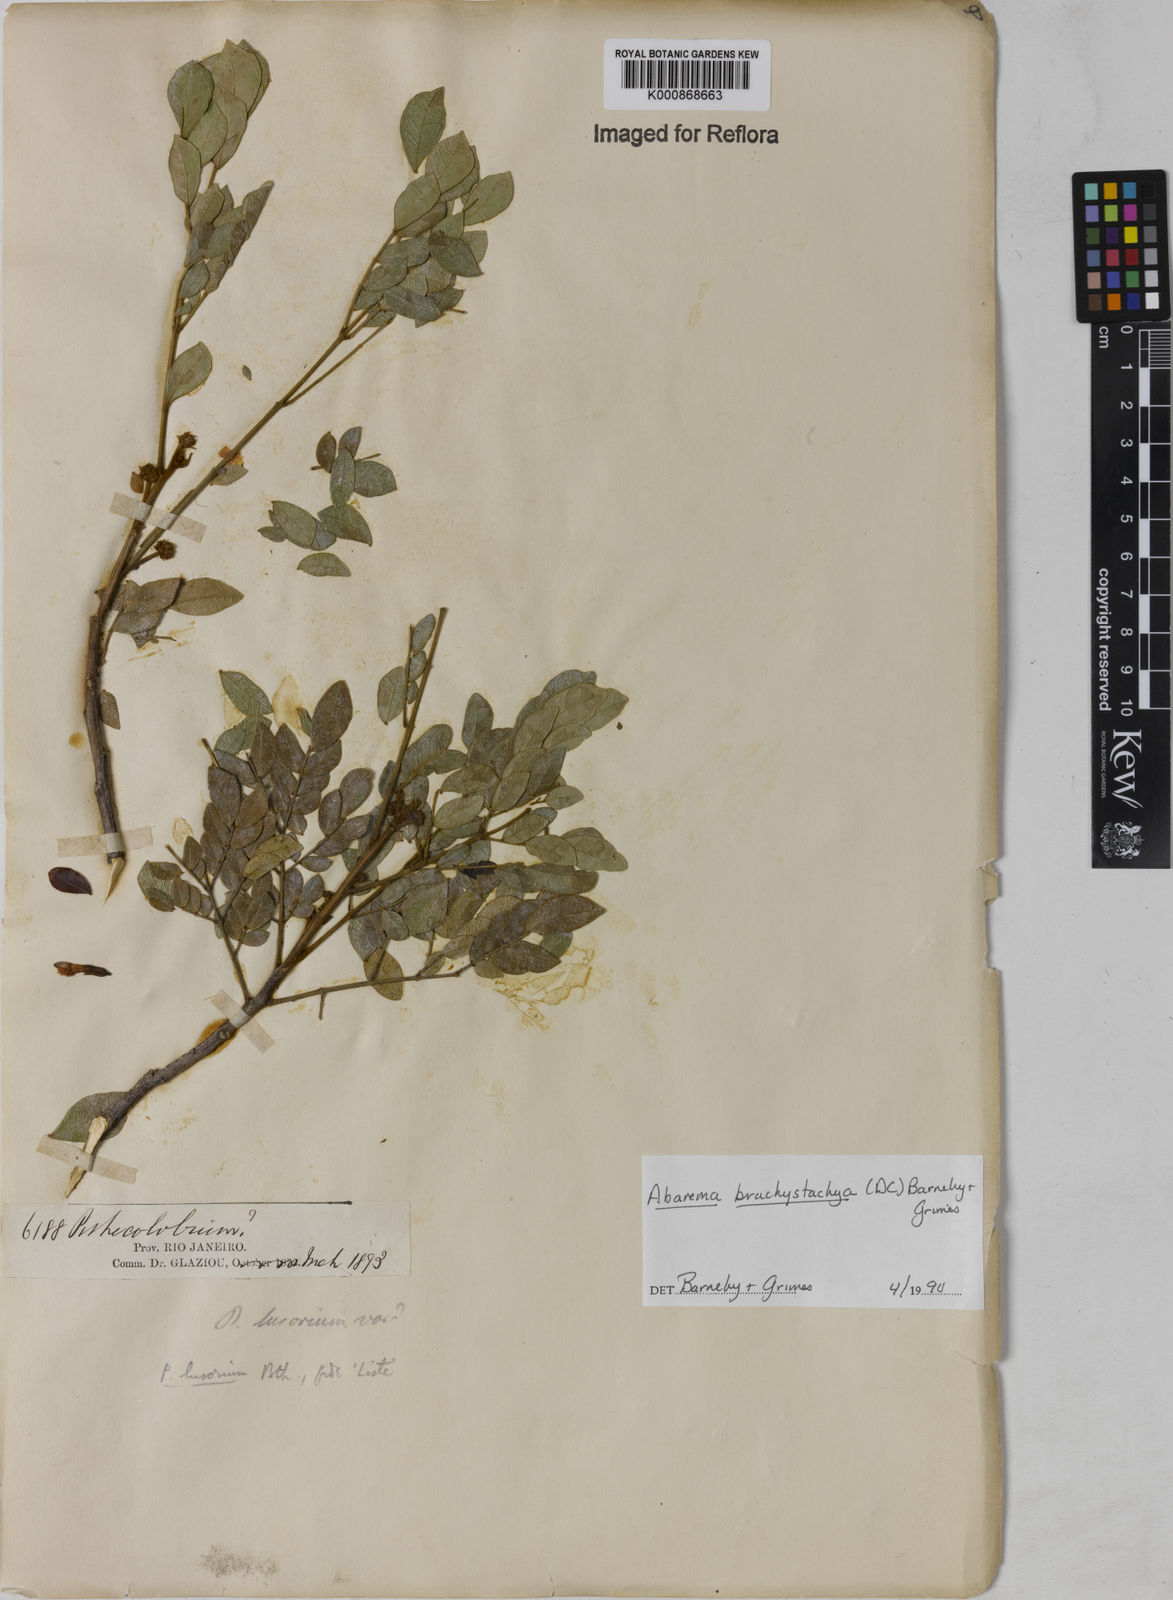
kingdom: Plantae
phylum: Tracheophyta
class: Magnoliopsida
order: Fabales
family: Fabaceae
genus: Abarema
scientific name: Abarema
